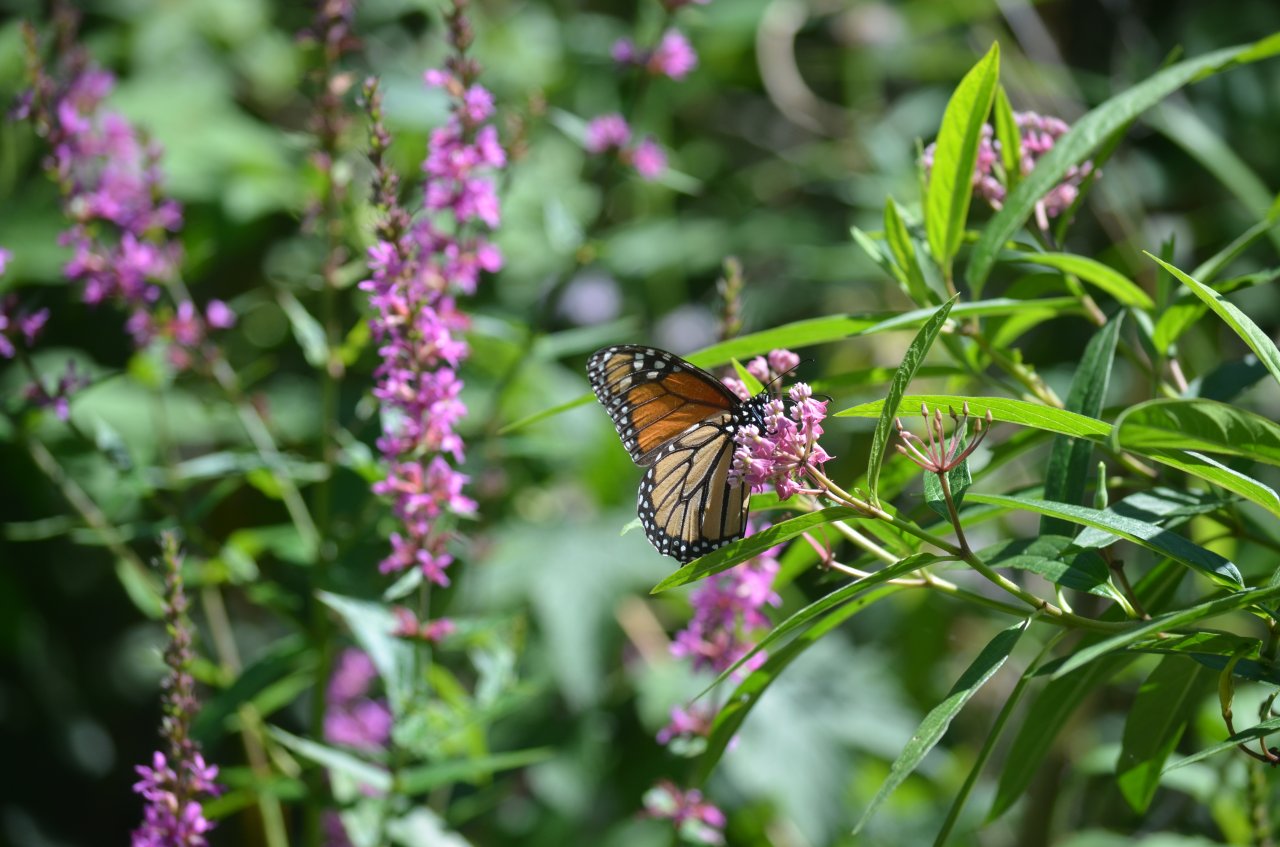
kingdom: Animalia
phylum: Arthropoda
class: Insecta
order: Lepidoptera
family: Nymphalidae
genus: Danaus
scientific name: Danaus plexippus
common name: Monarch
